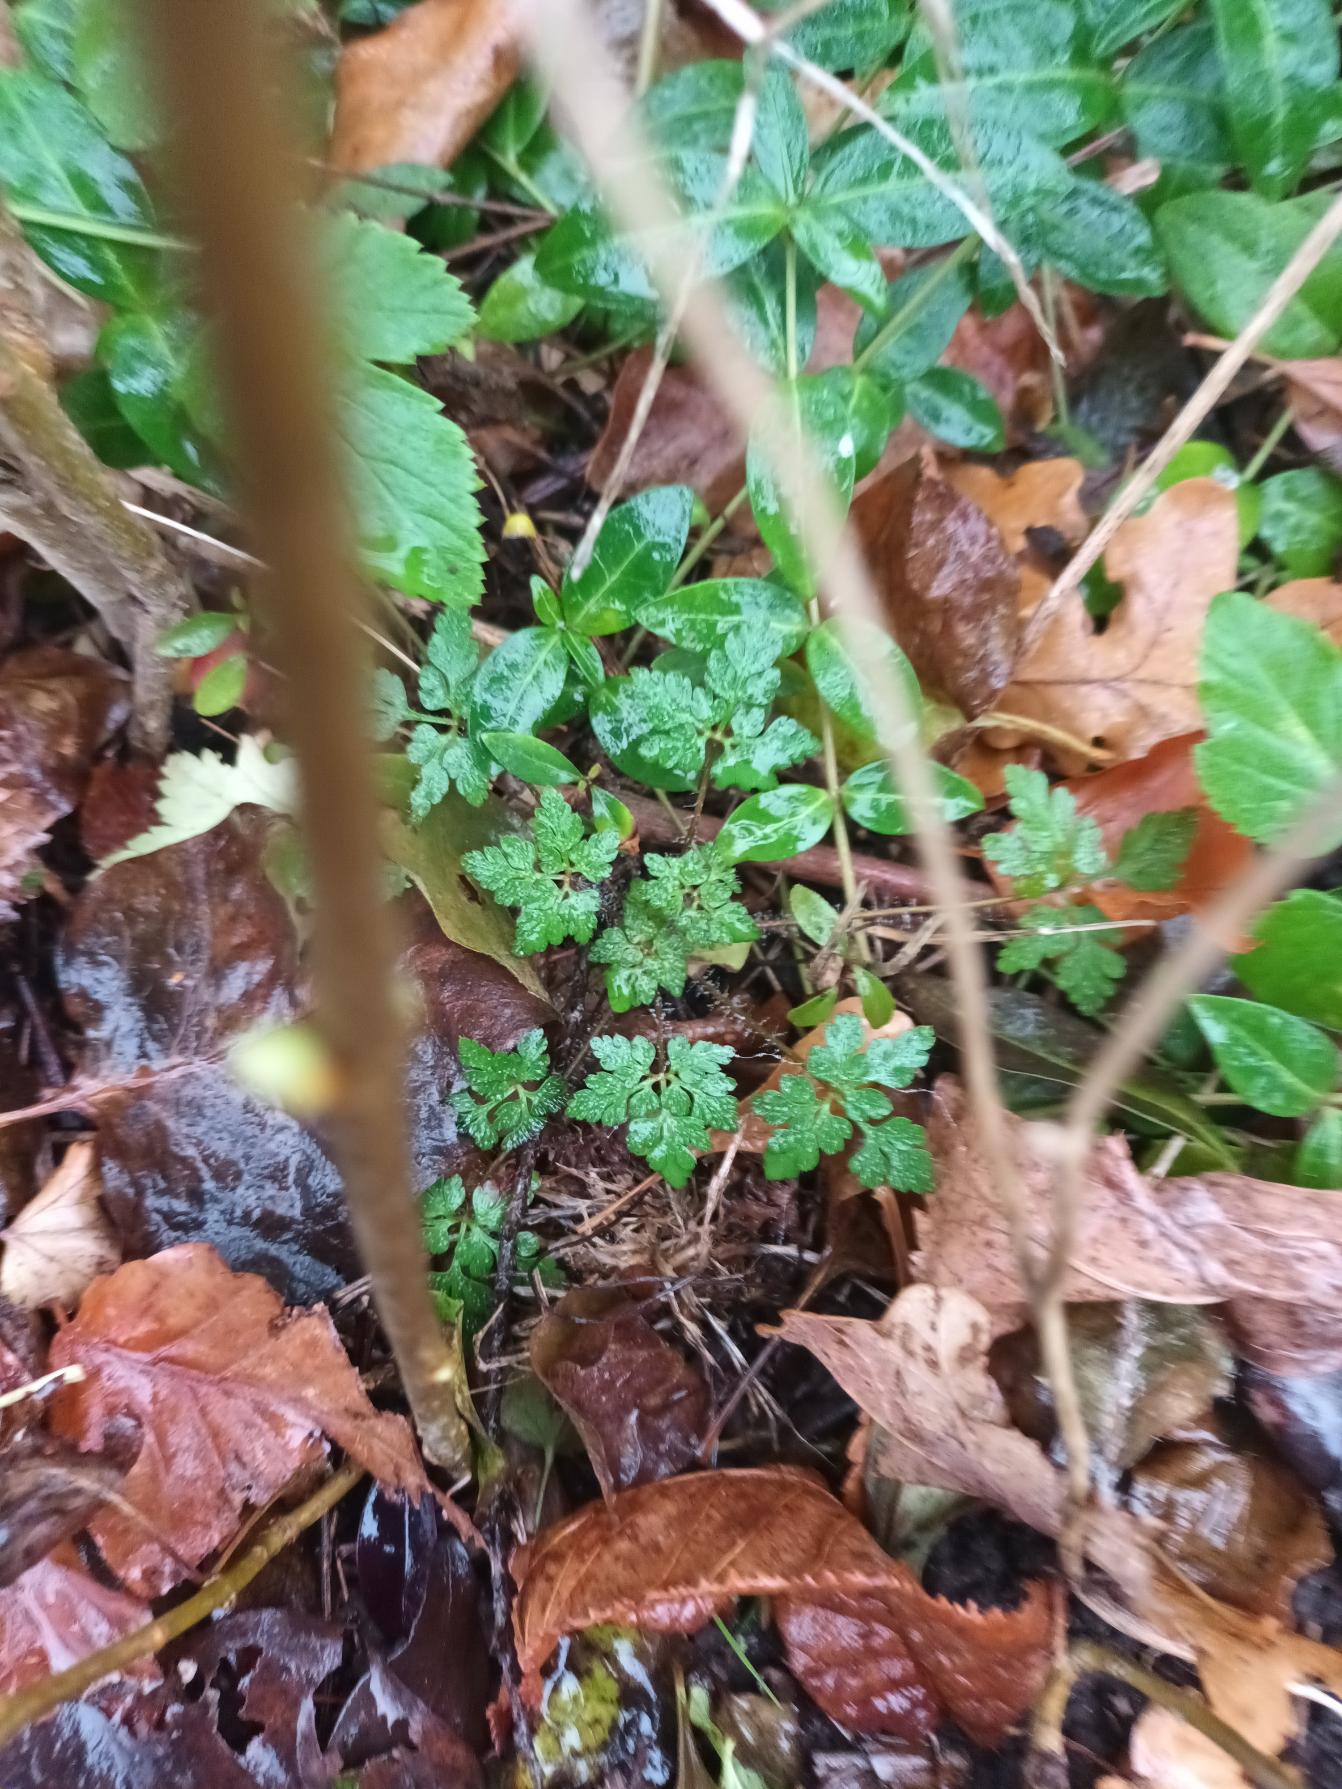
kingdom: Plantae
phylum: Tracheophyta
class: Magnoliopsida
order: Geraniales
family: Geraniaceae
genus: Geranium
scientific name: Geranium robertianum
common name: Stinkende storkenæb
